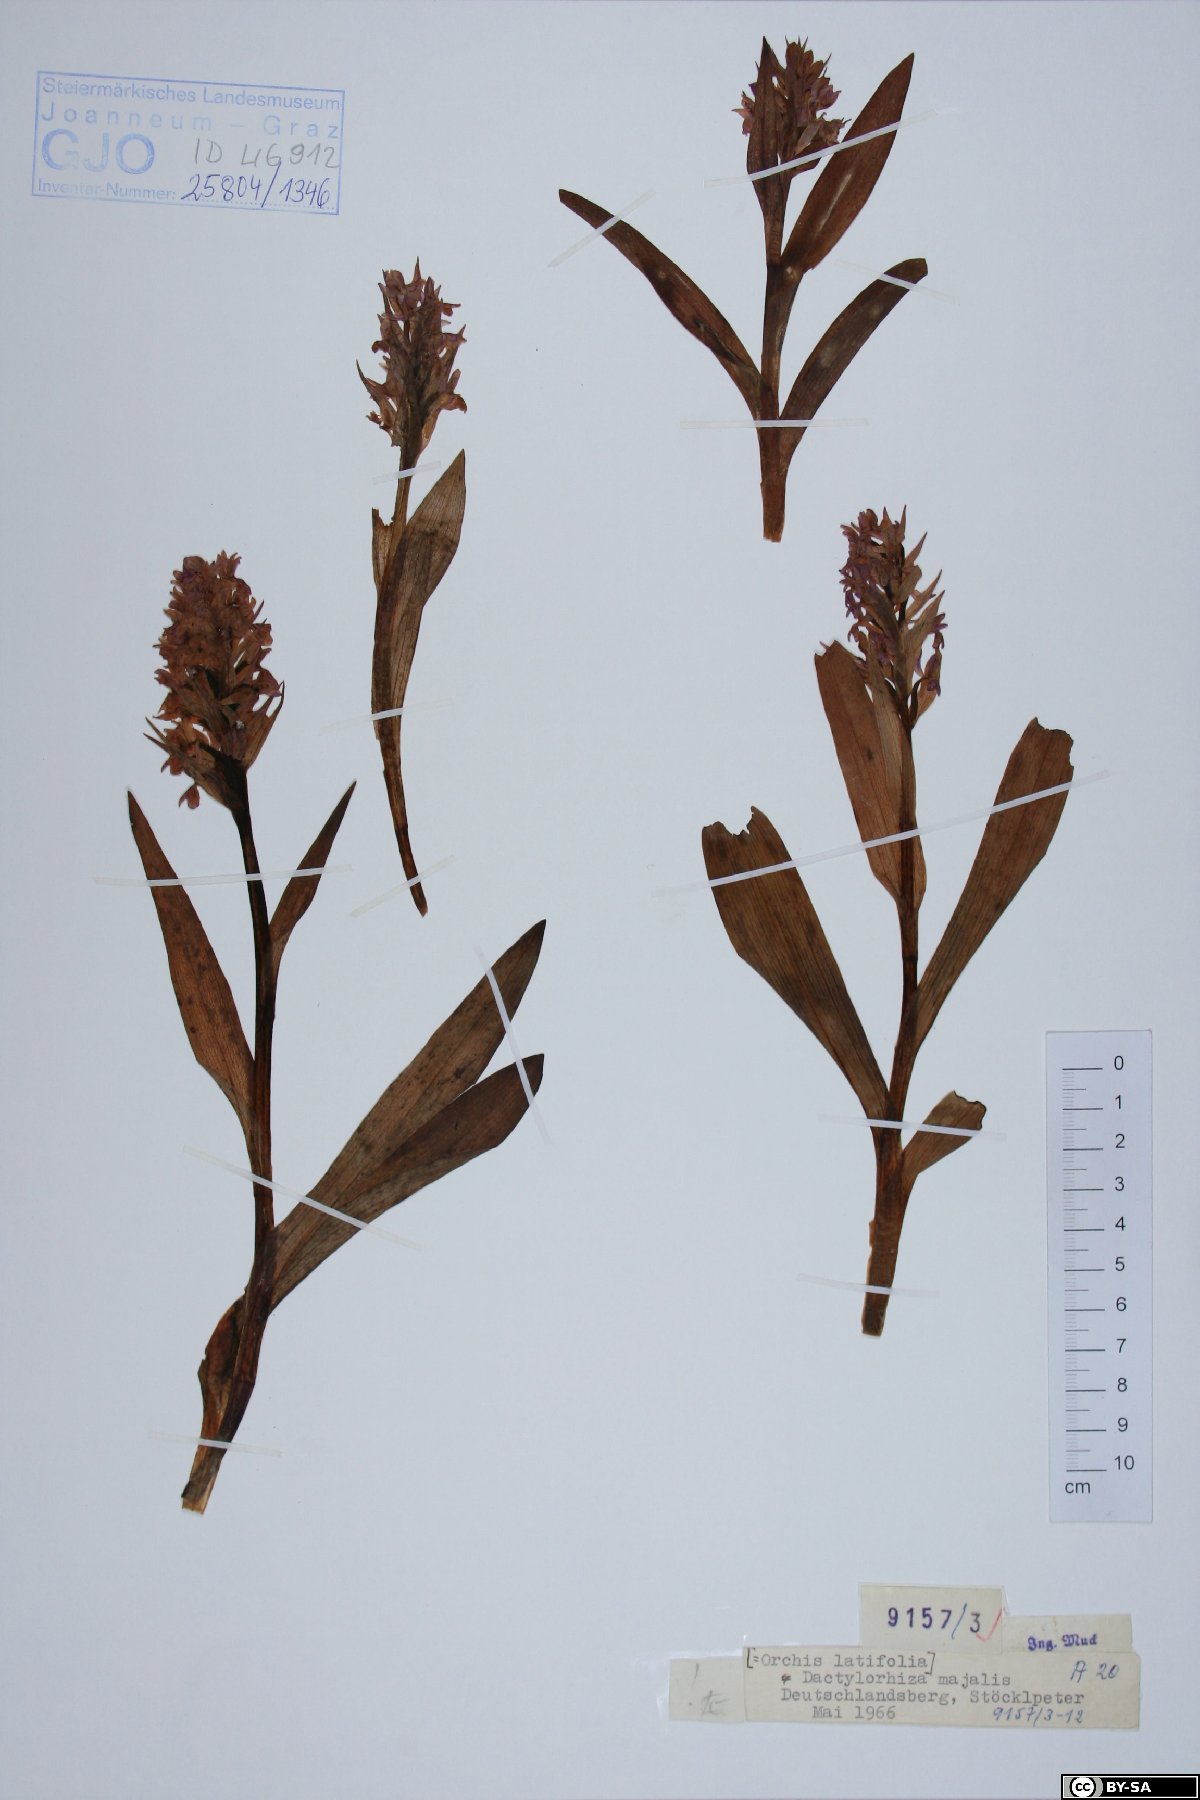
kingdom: Plantae
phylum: Tracheophyta
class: Liliopsida
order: Asparagales
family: Orchidaceae
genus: Dactylorhiza
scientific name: Dactylorhiza incarnata
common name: Early marsh-orchid
